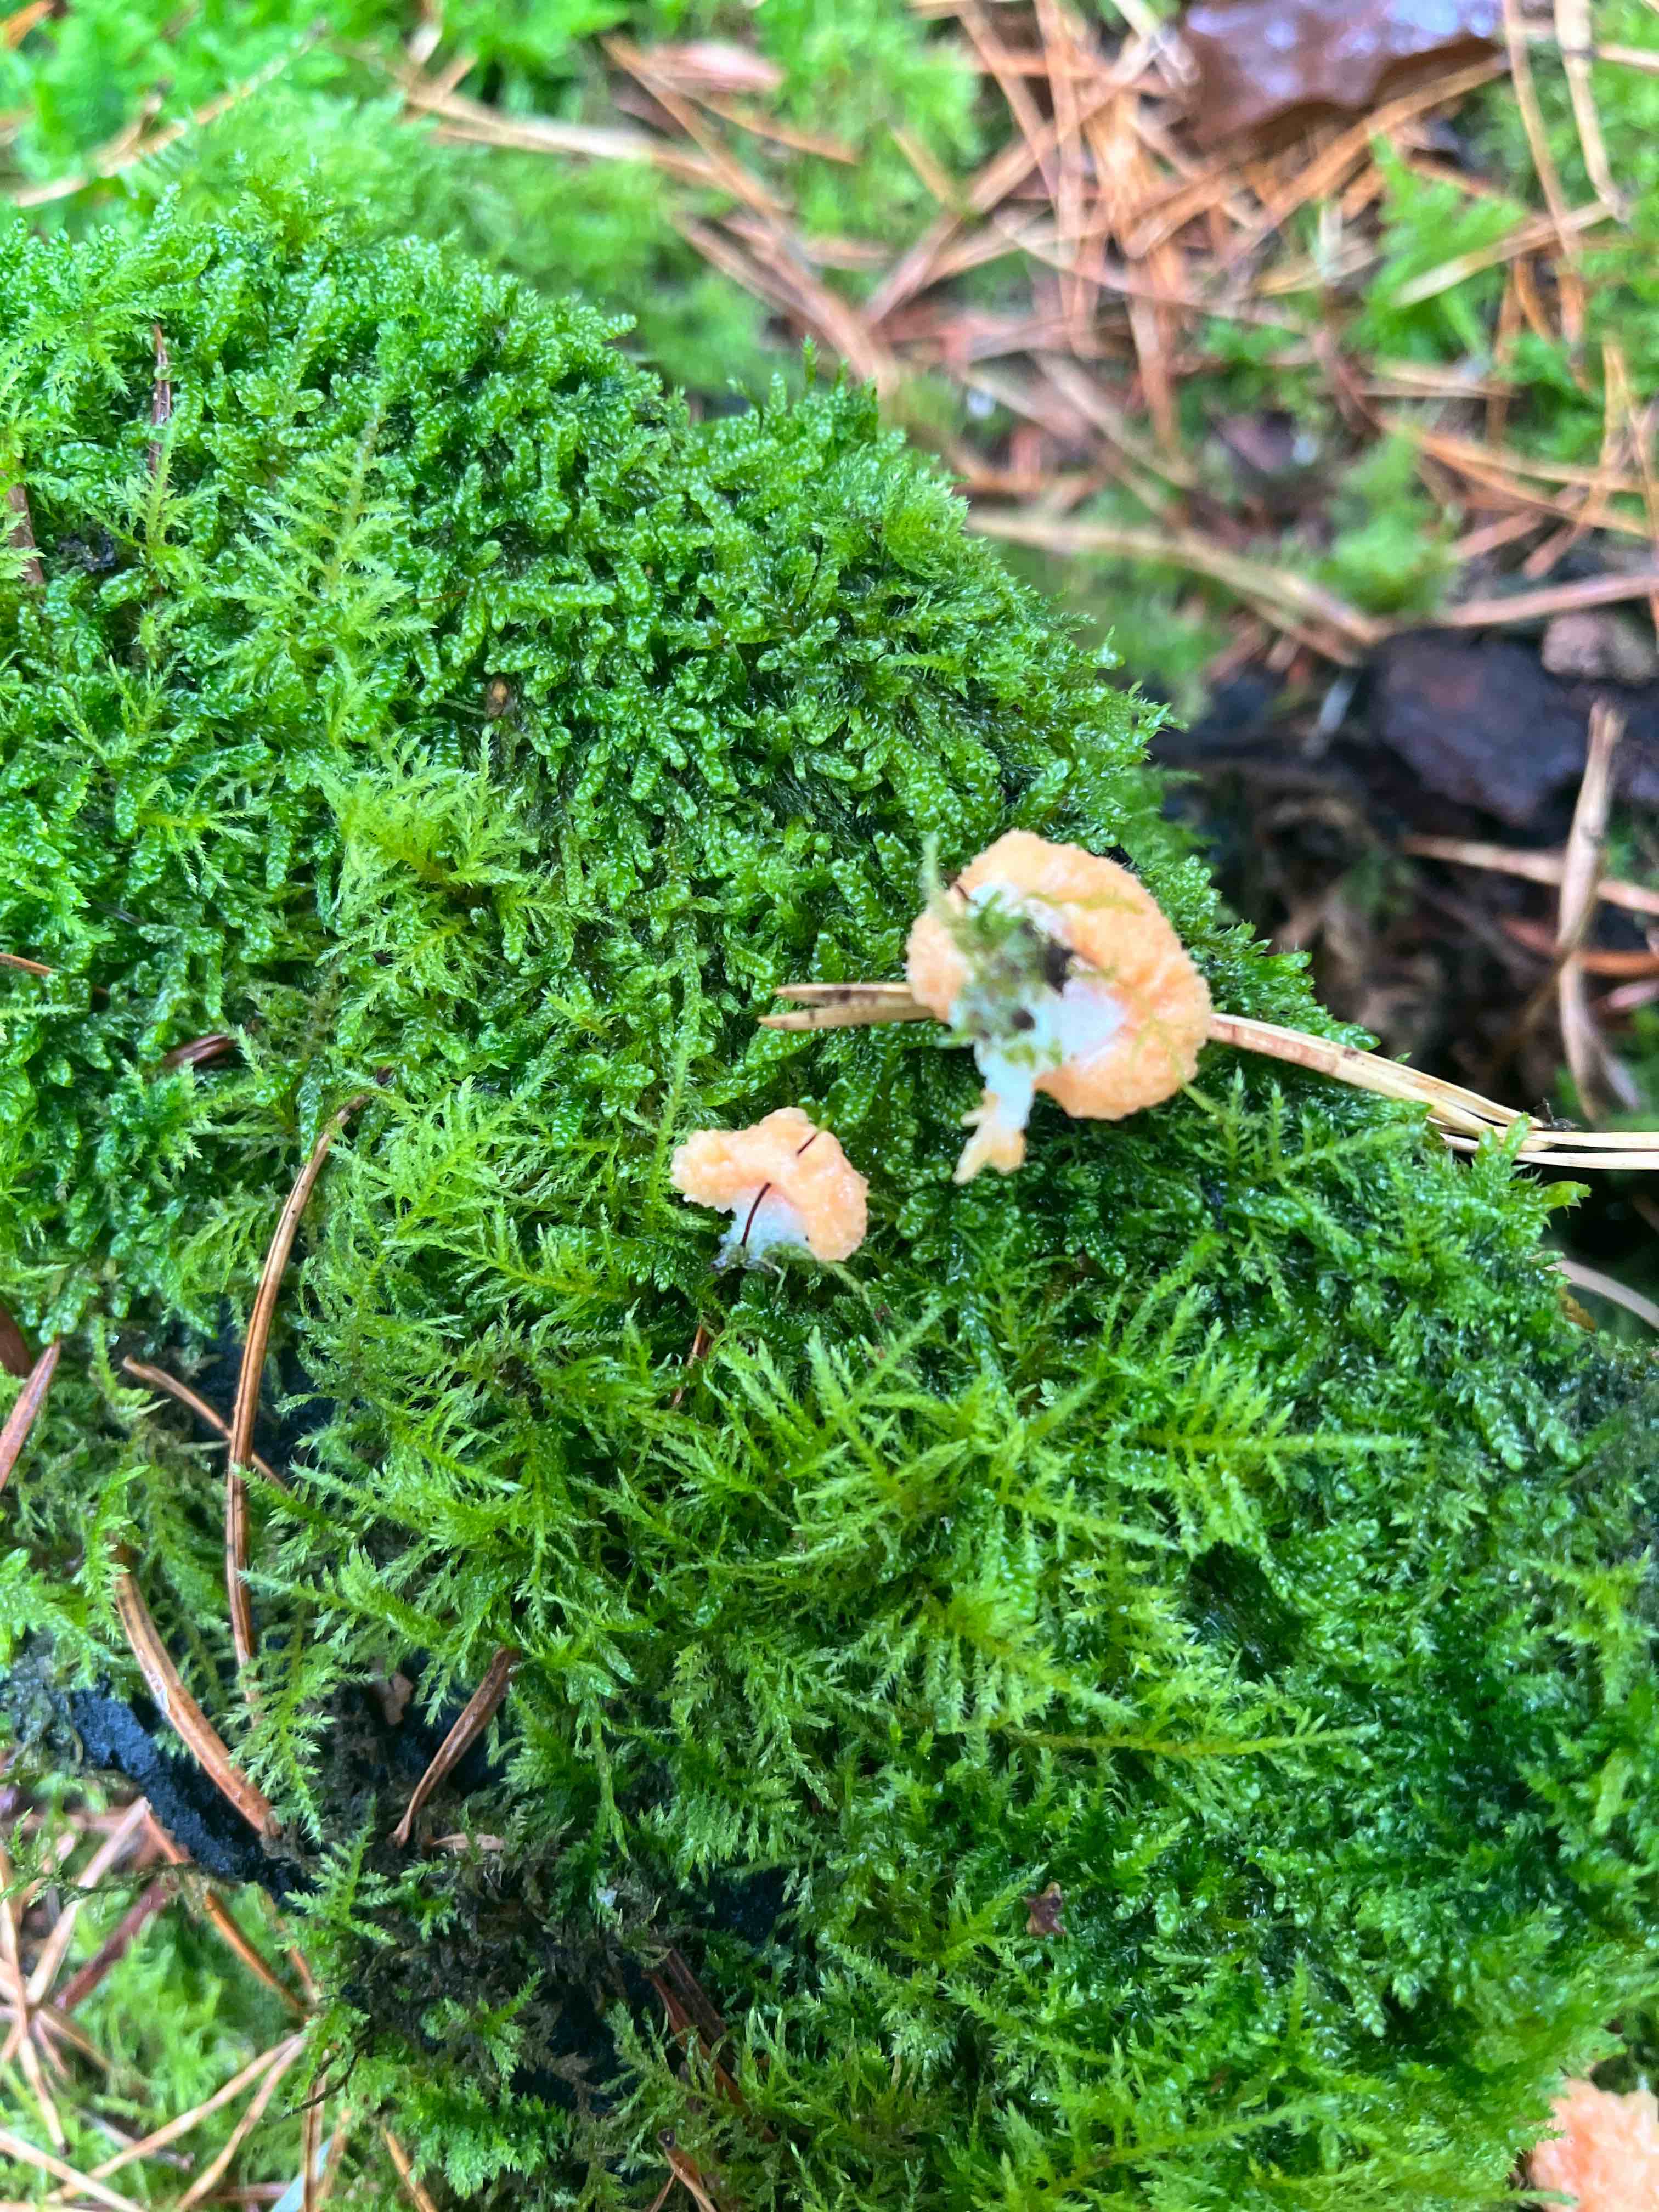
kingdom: Protozoa
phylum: Mycetozoa
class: Myxomycetes
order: Cribrariales
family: Tubiferaceae
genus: Tubifera
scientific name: Tubifera
